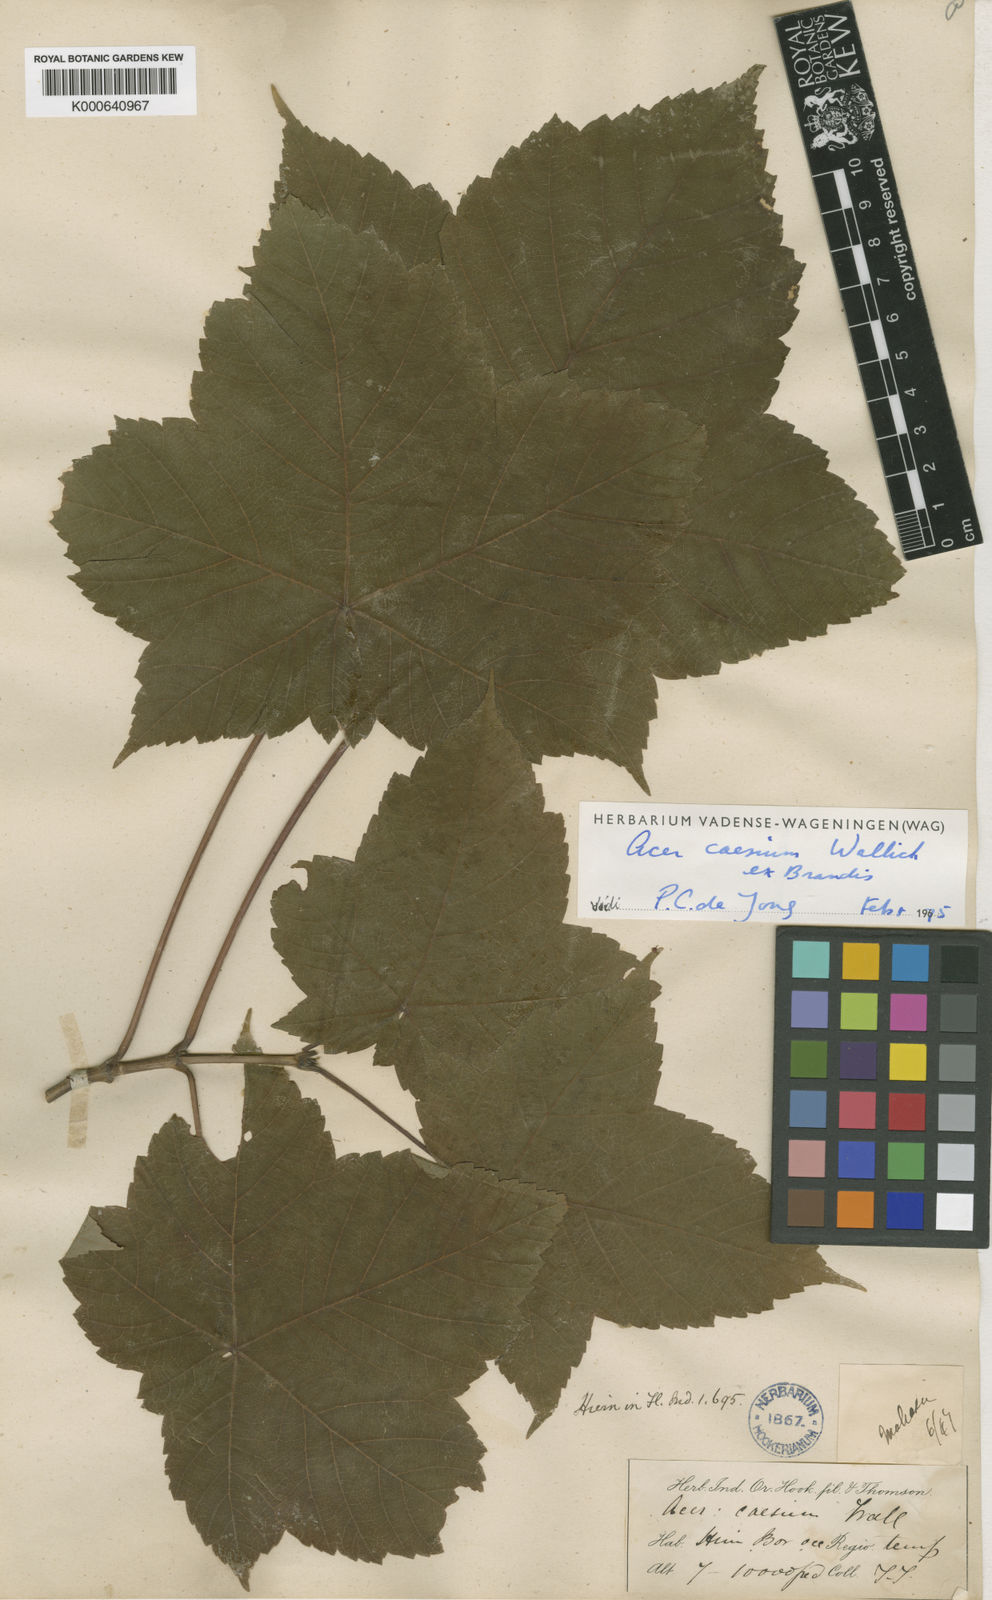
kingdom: Plantae
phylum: Tracheophyta
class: Magnoliopsida
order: Sapindales
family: Sapindaceae
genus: Acer
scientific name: Acer caesium
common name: Indian maple
